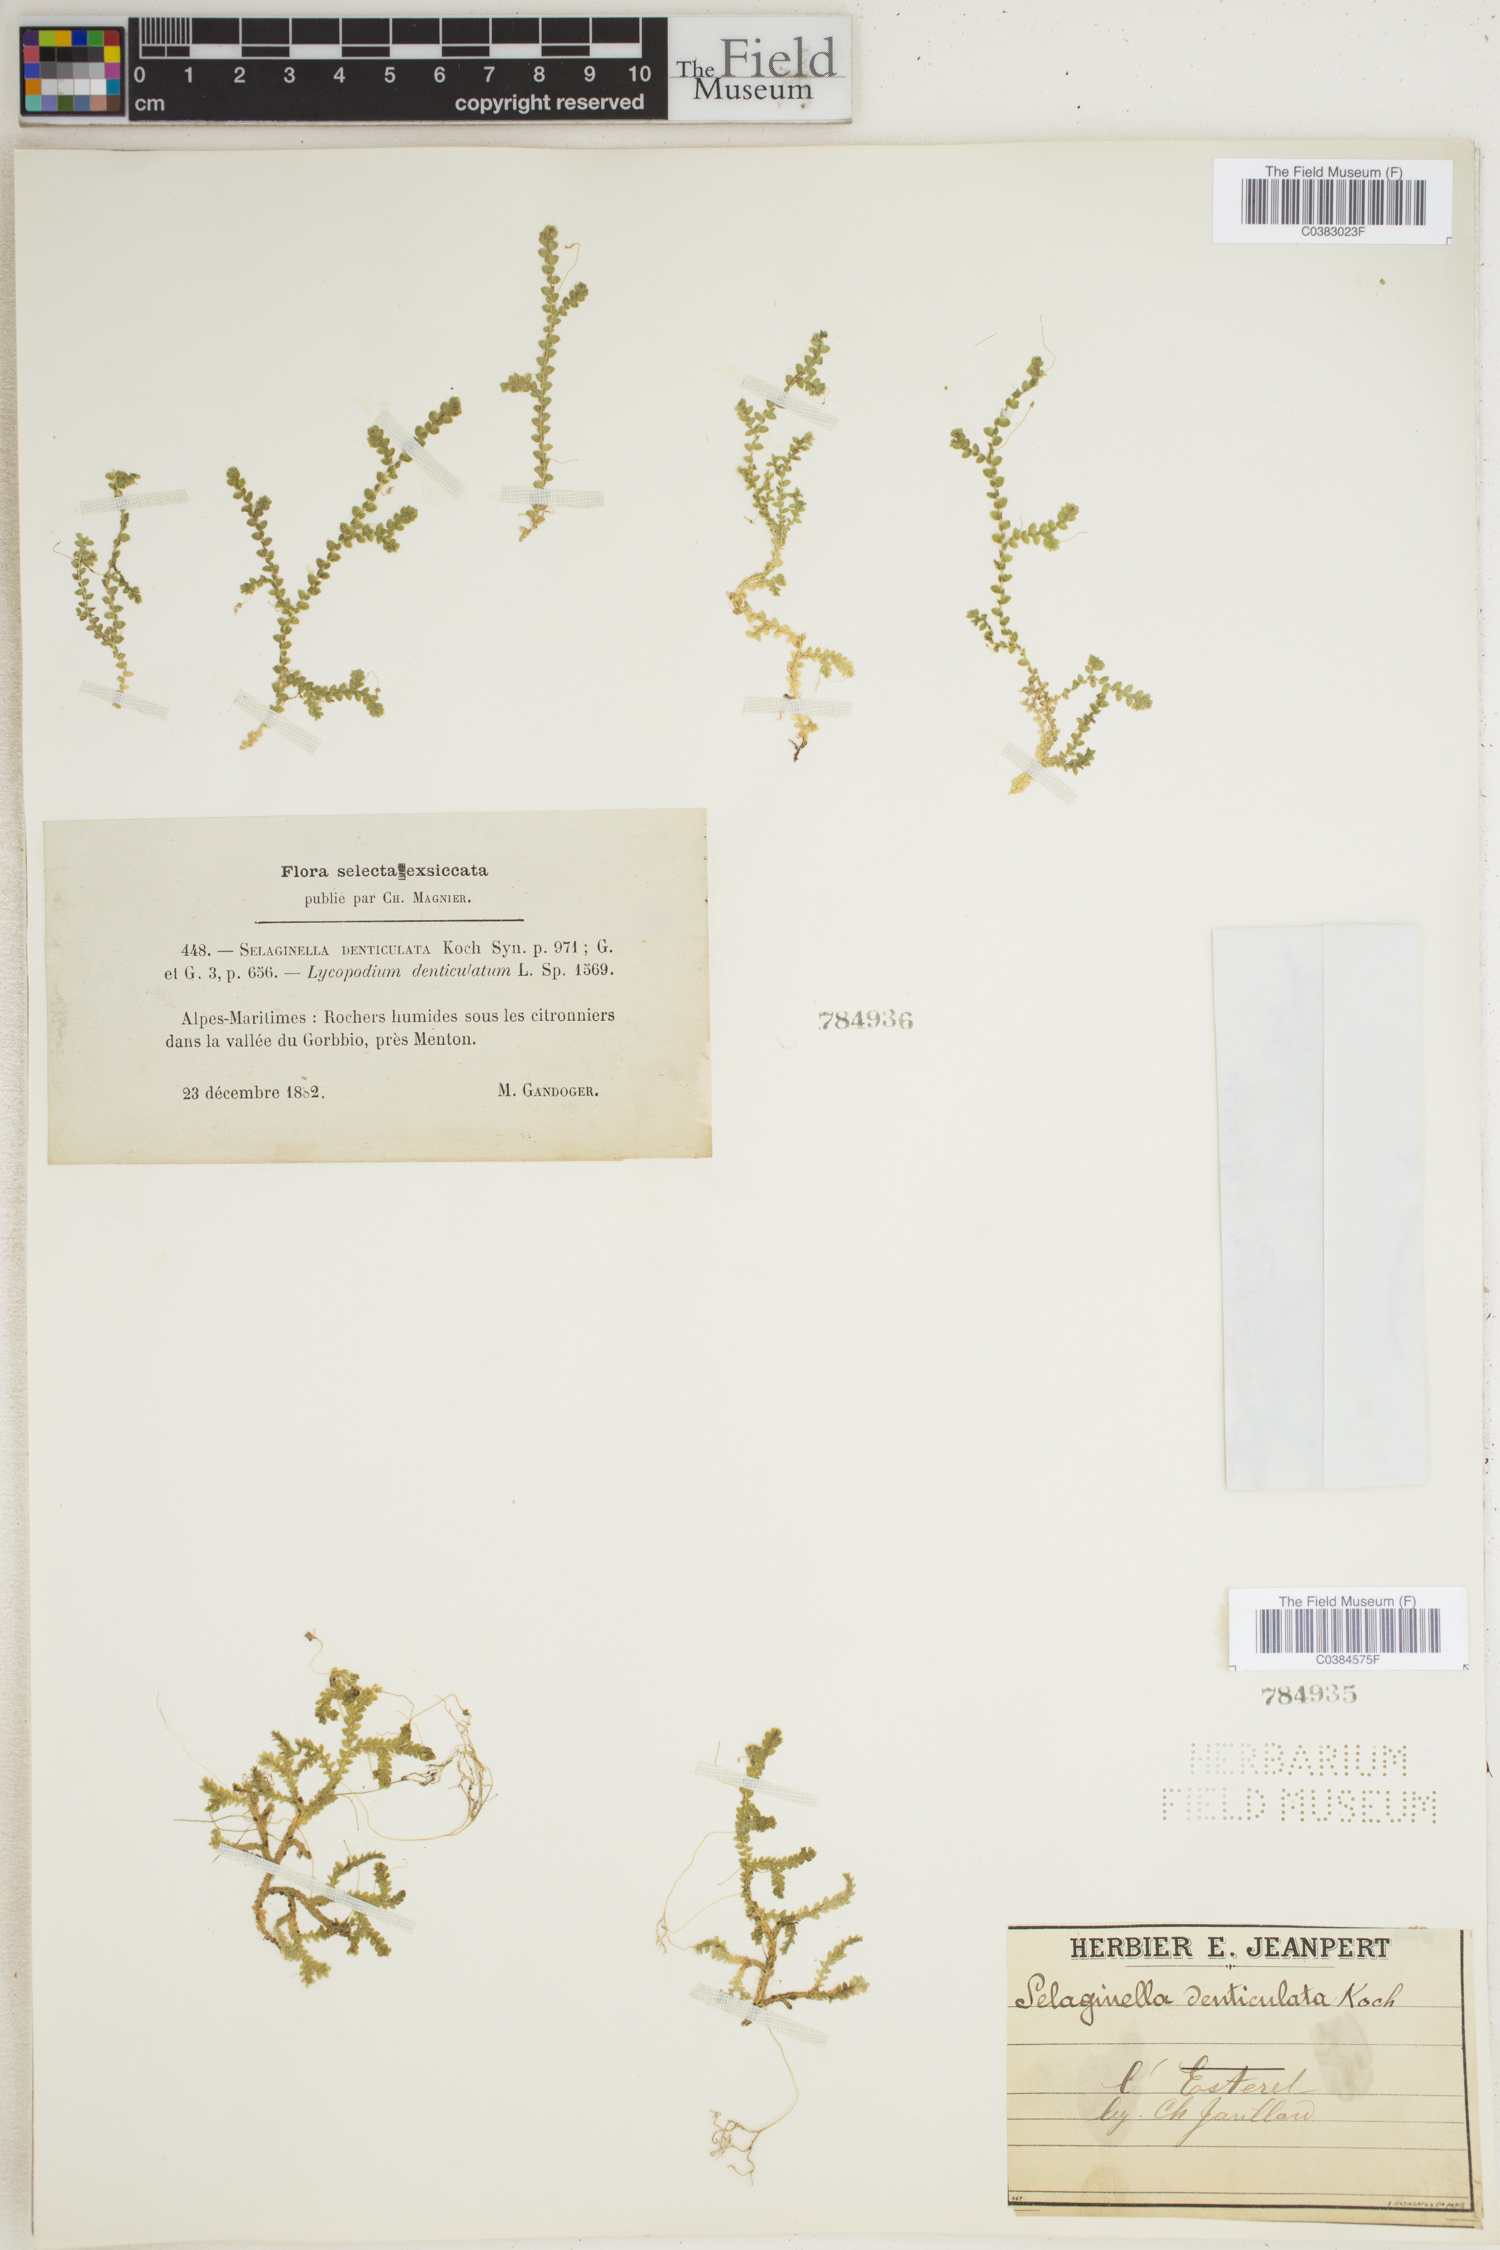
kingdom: Plantae
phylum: Tracheophyta
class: Lycopodiopsida
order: Selaginellales
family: Selaginellaceae
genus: Selaginella
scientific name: Selaginella denticulata
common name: Toothed-leaved clubmoss
